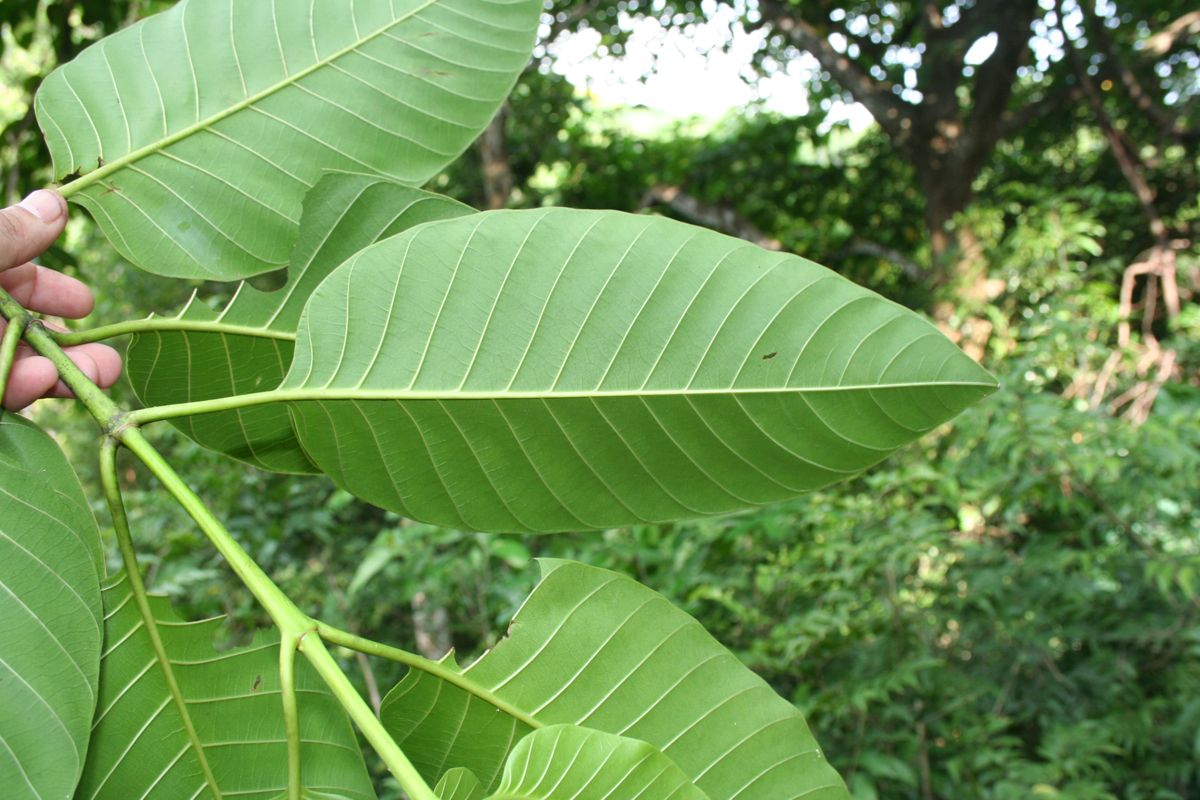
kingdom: Plantae
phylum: Tracheophyta
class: Magnoliopsida
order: Gentianales
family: Rubiaceae
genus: Neolamarckia
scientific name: Neolamarckia cadamba
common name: Leichhardt-pine
